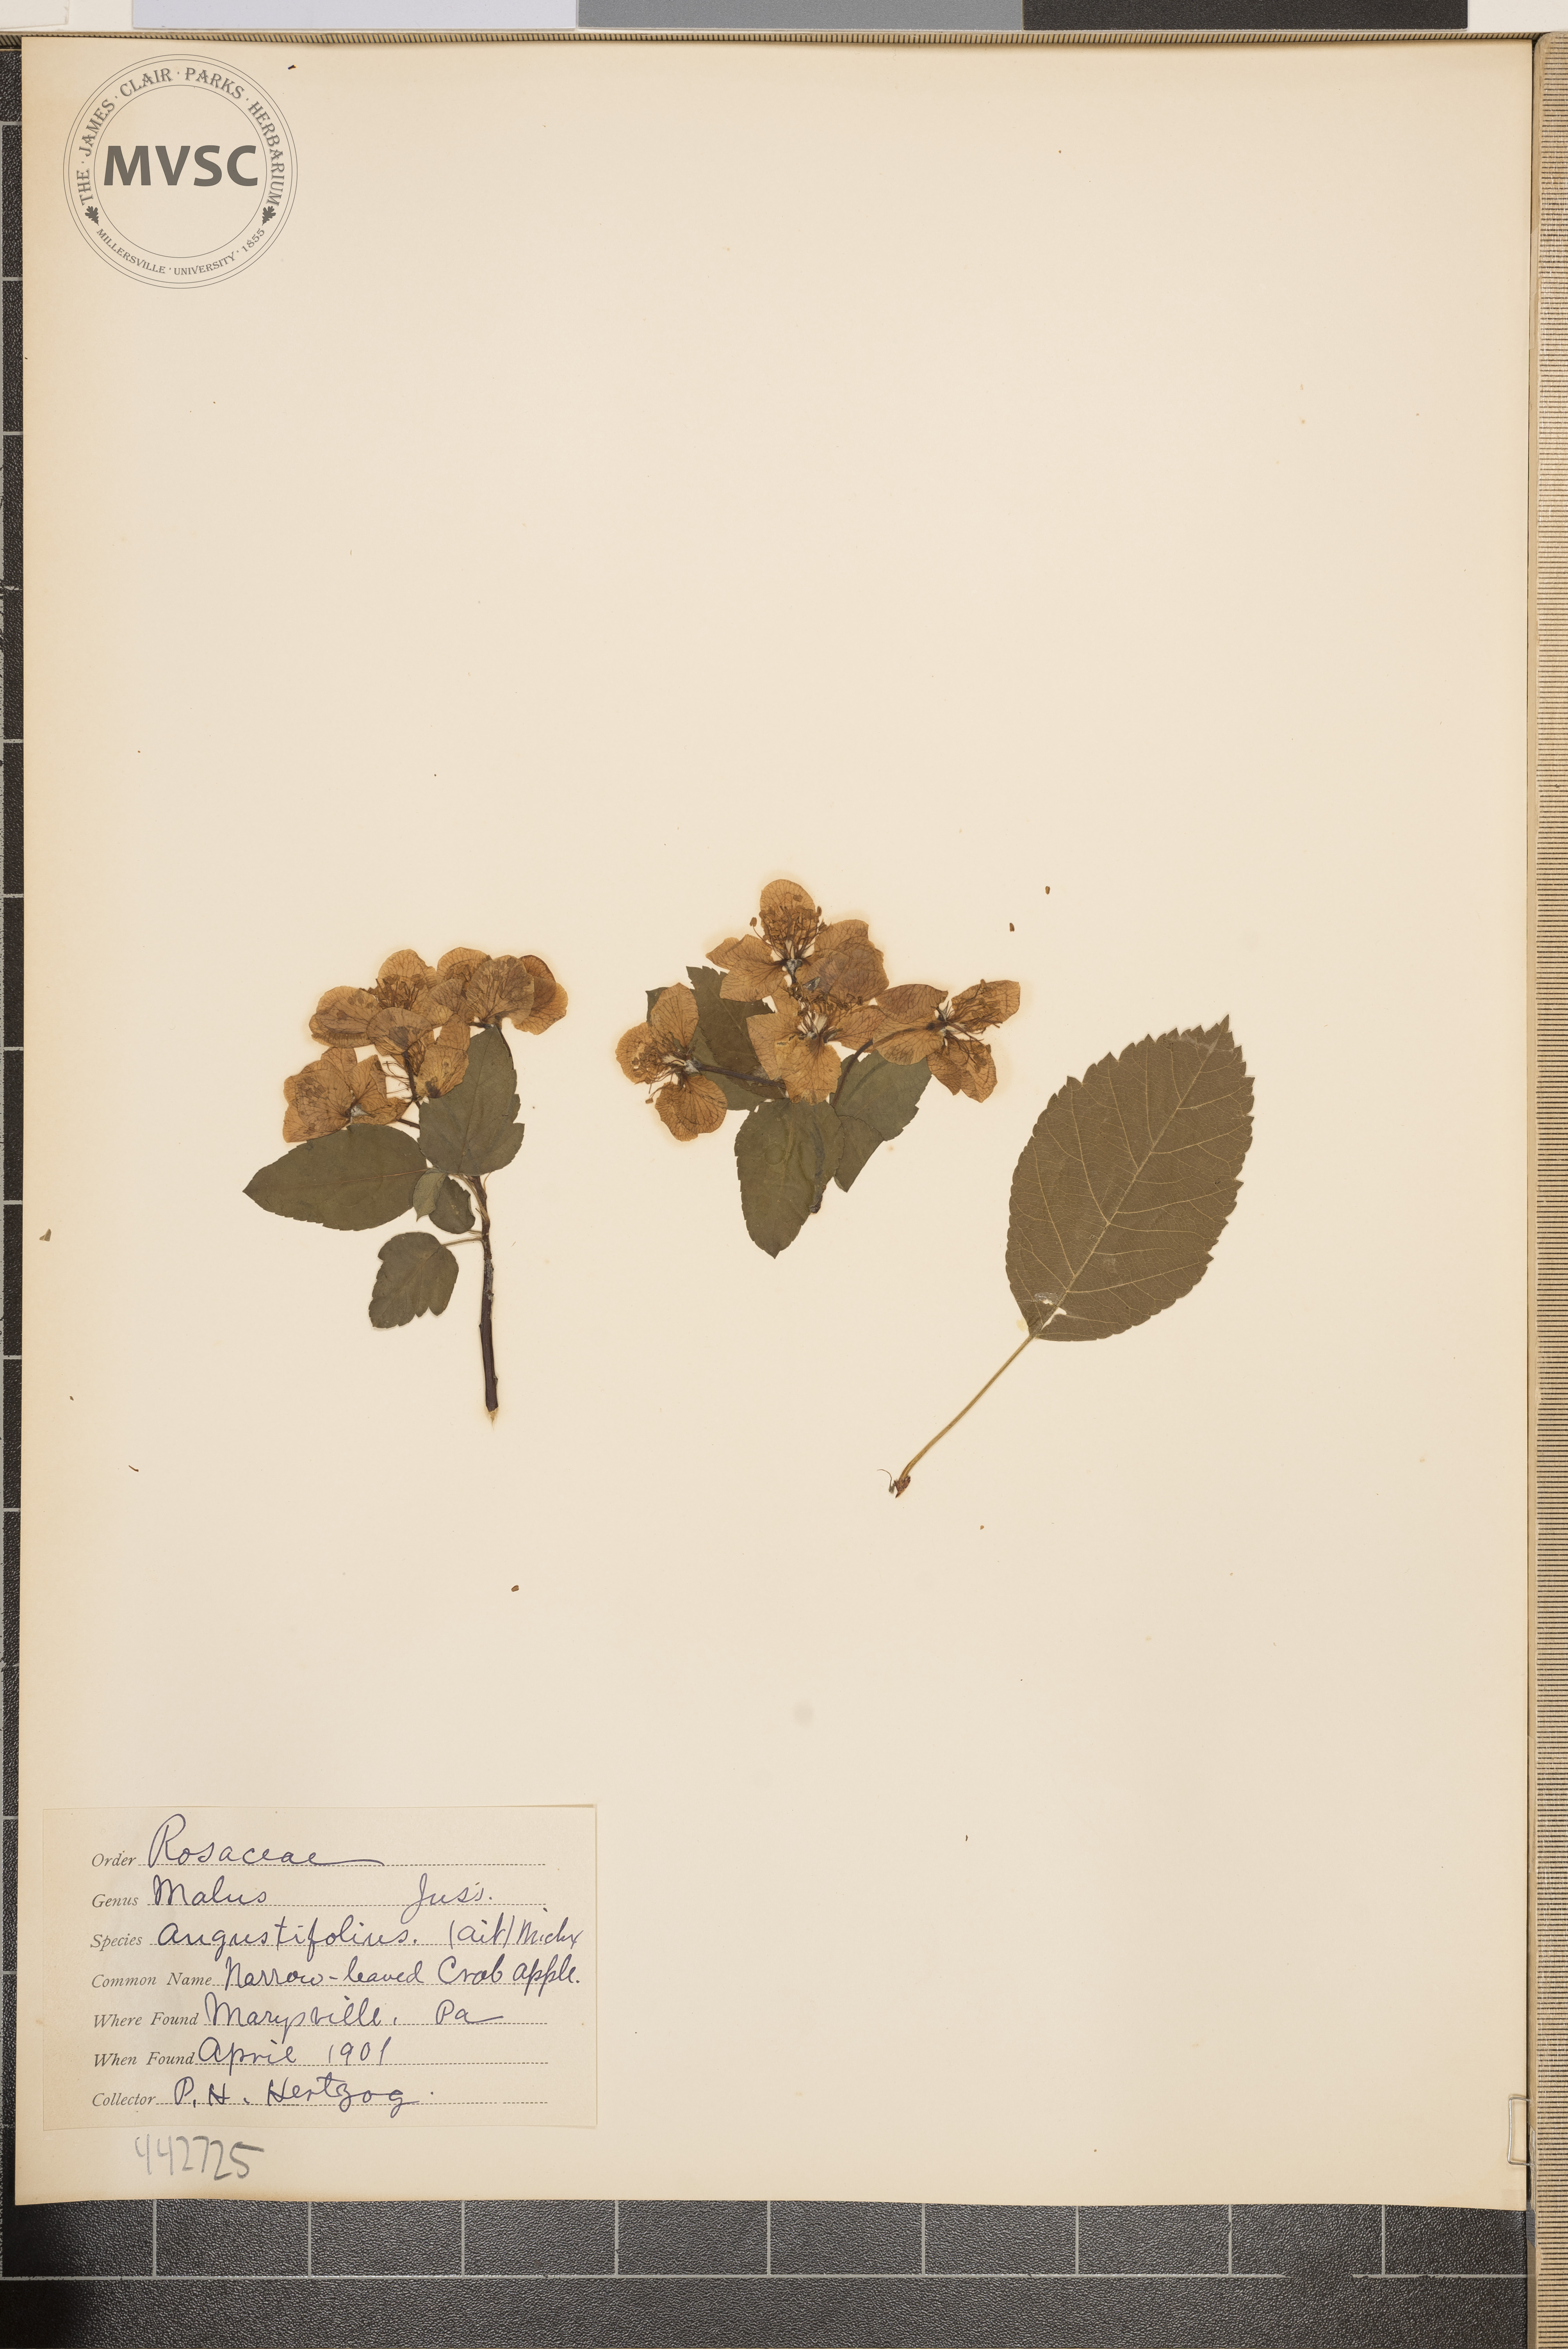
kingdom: Plantae
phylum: Tracheophyta
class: Magnoliopsida
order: Rosales
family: Rosaceae
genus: Malus
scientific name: Malus angustifolia
